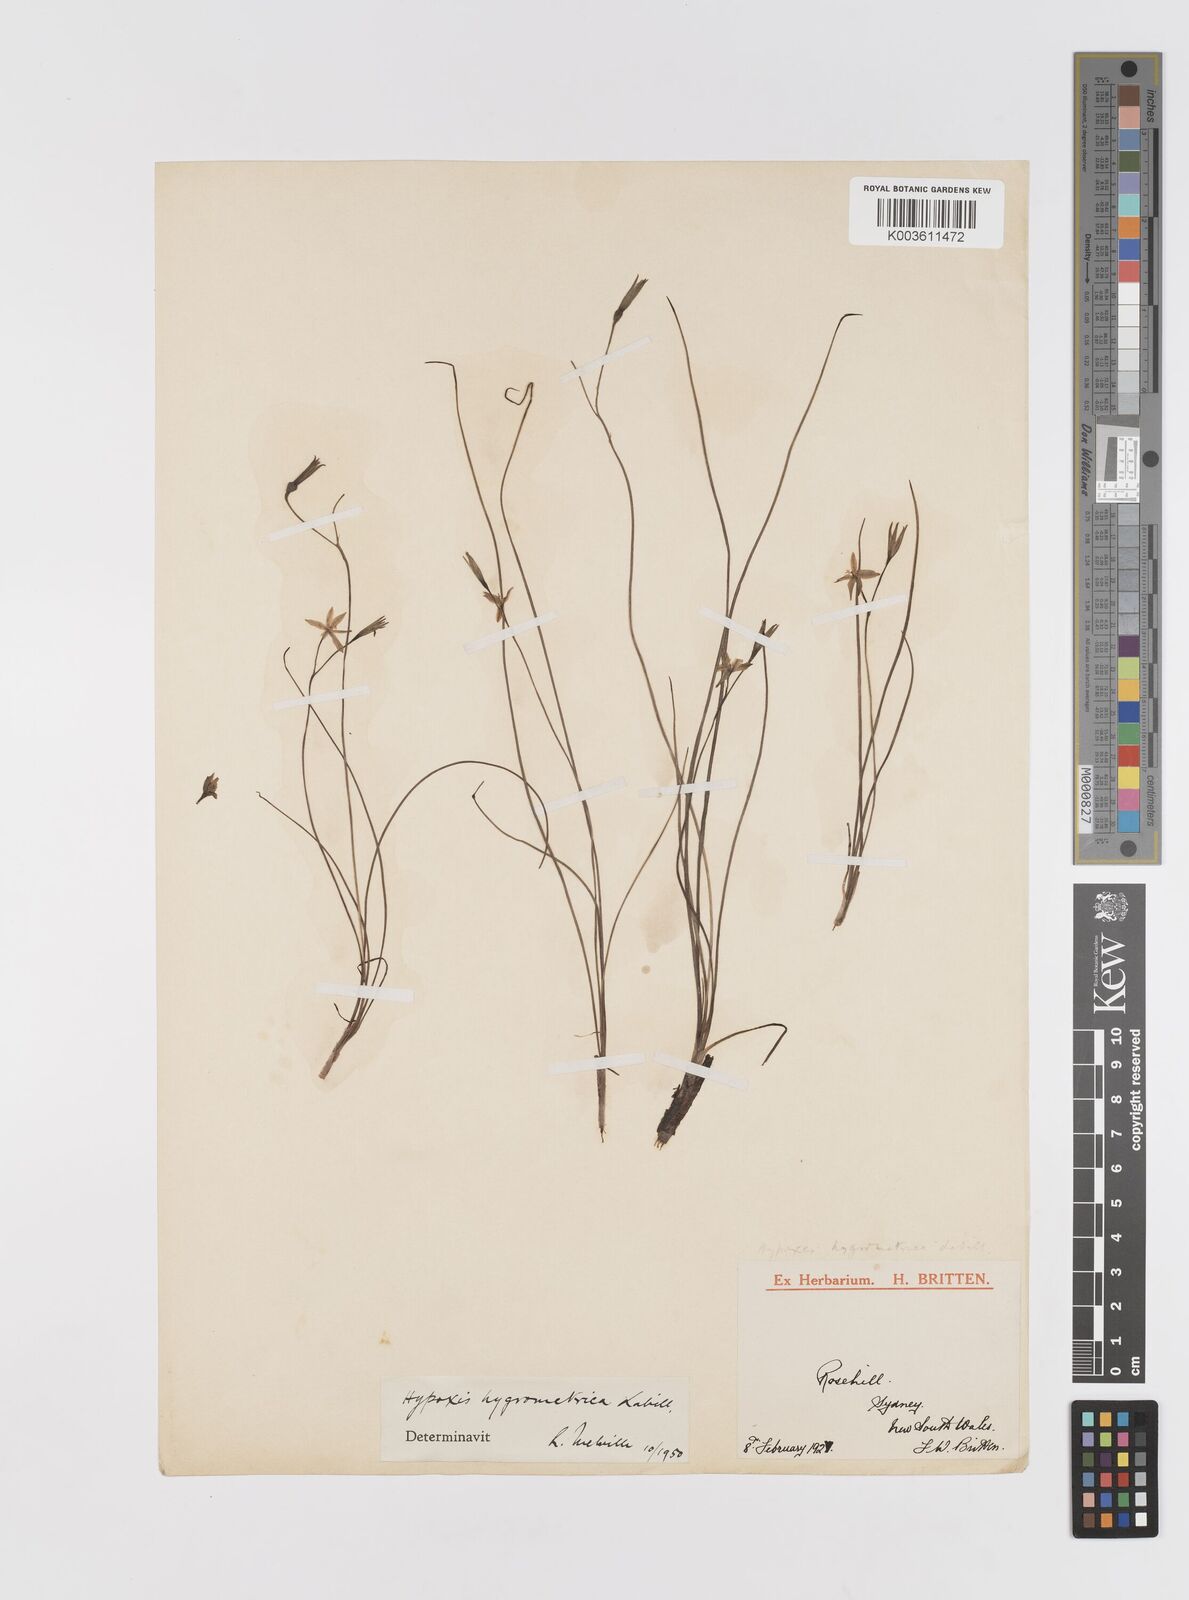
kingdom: Plantae
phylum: Tracheophyta
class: Liliopsida
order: Asparagales
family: Hypoxidaceae
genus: Hypoxis
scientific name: Hypoxis hygrometrica
